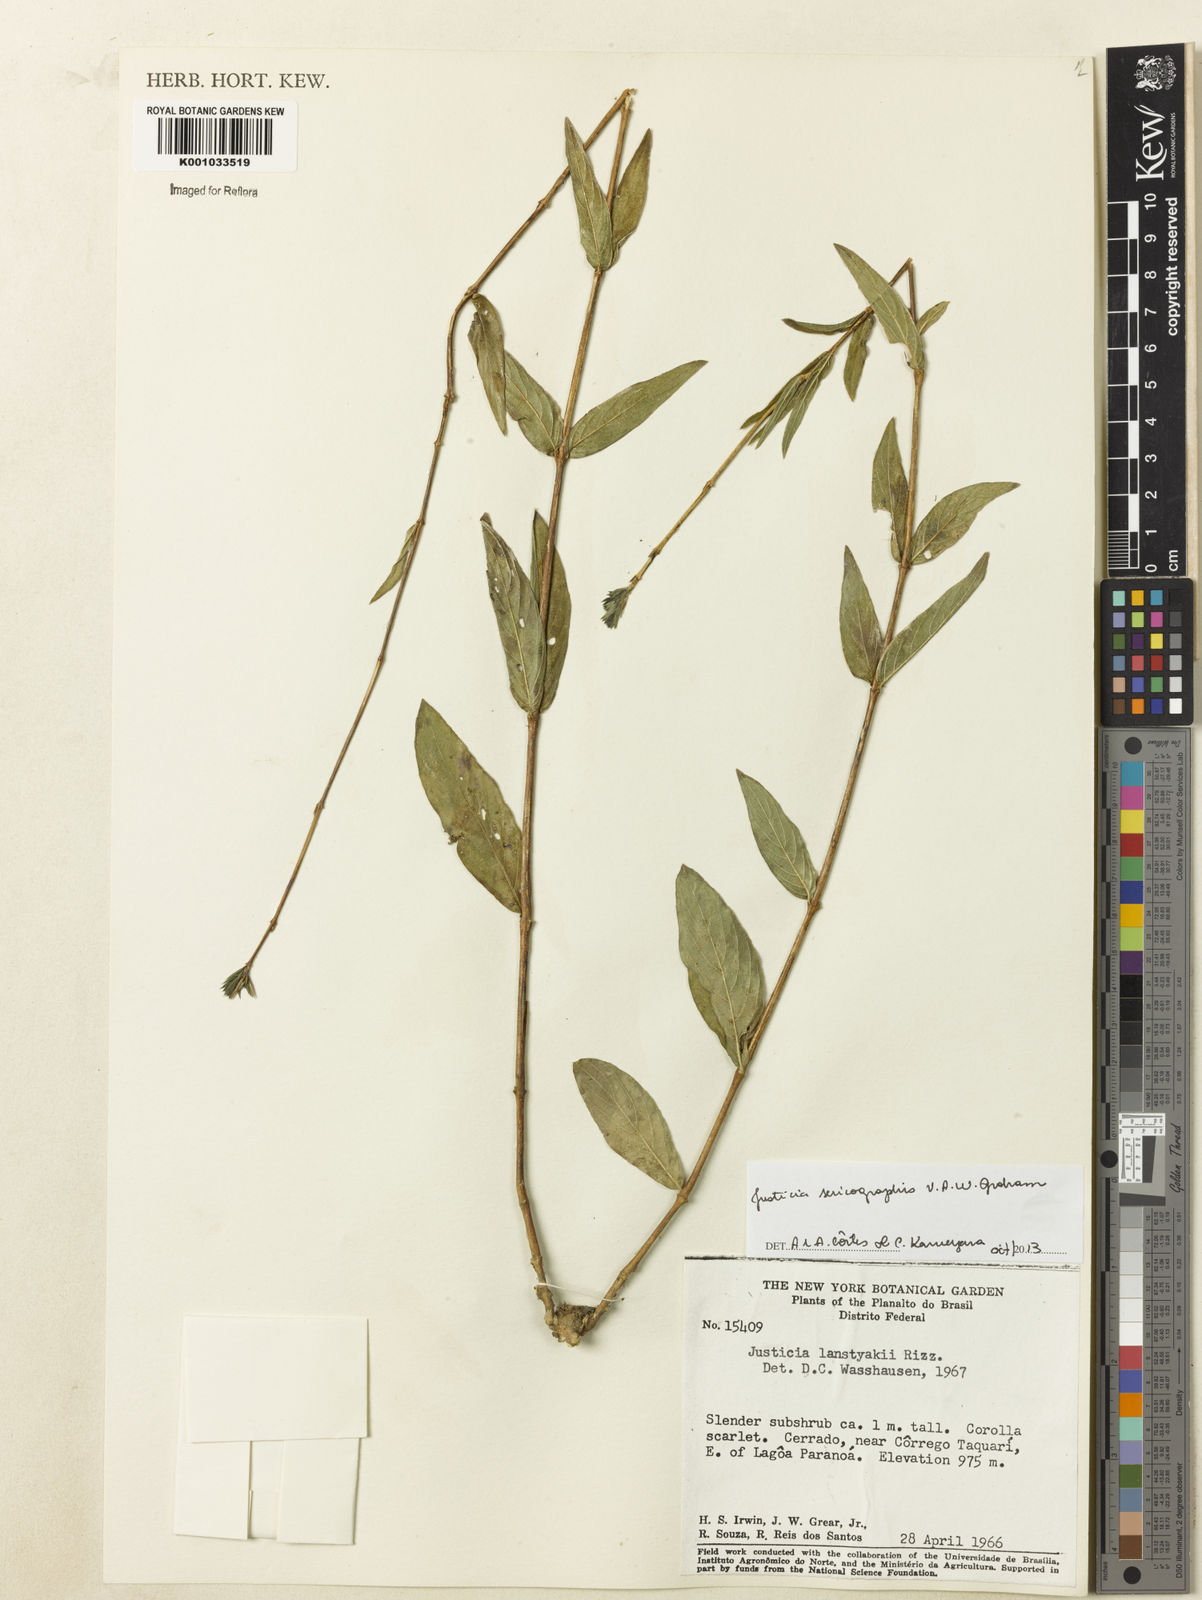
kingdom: Plantae
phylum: Tracheophyta
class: Magnoliopsida
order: Lamiales
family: Acanthaceae
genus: Dianthera
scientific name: Dianthera rigida
